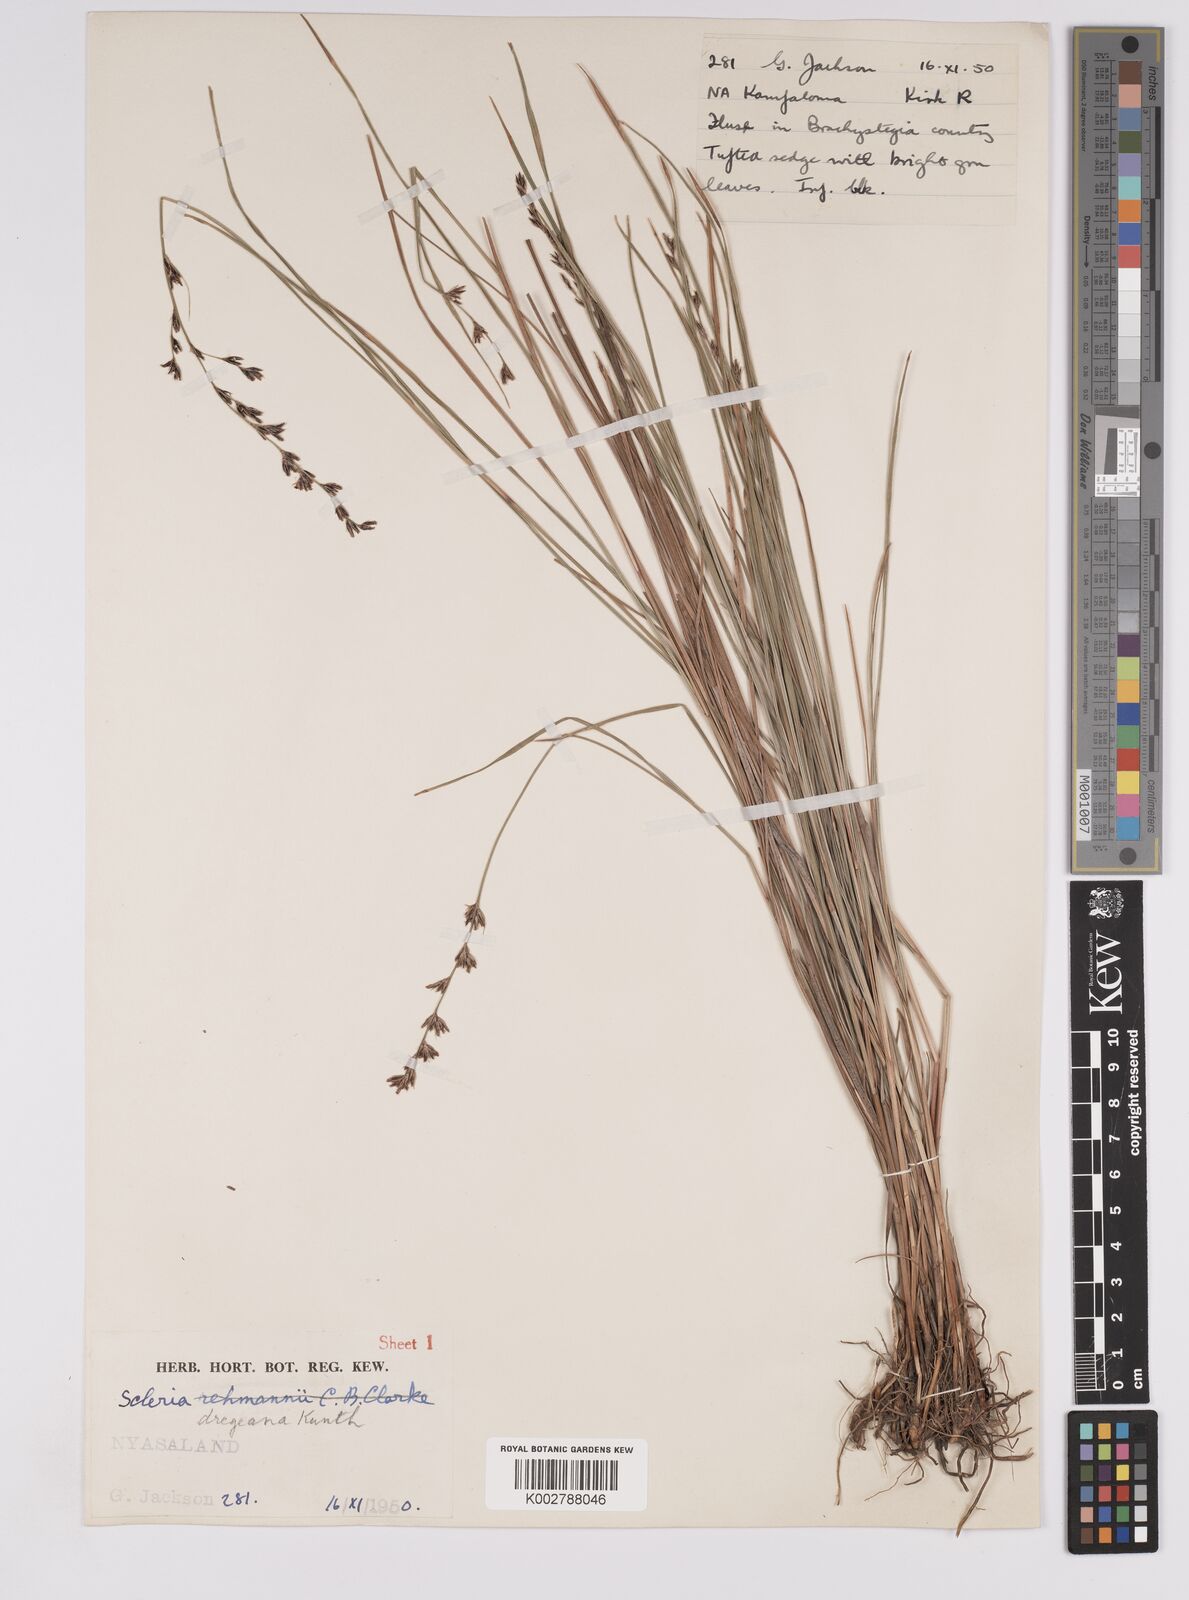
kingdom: Plantae
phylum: Tracheophyta
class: Liliopsida
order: Poales
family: Cyperaceae
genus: Scleria
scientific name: Scleria dregeana
